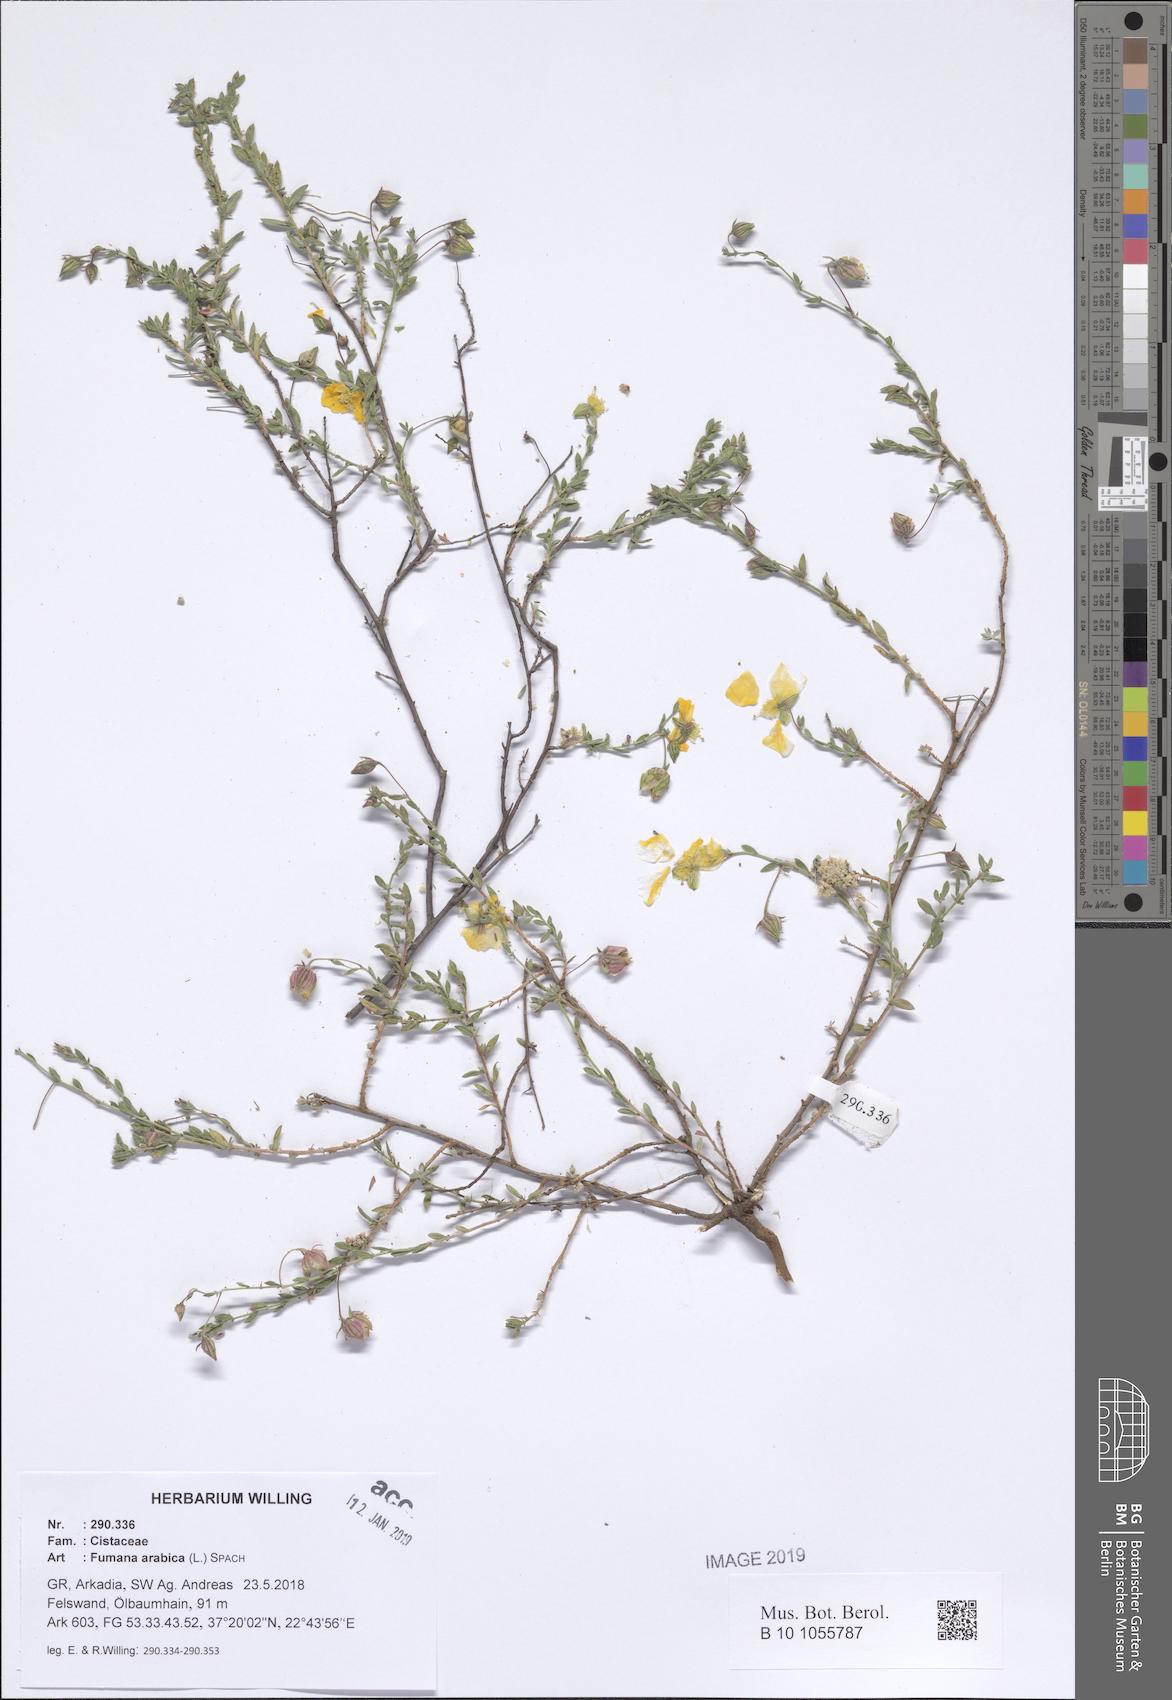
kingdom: Plantae
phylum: Tracheophyta
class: Magnoliopsida
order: Malvales
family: Cistaceae
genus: Fumana
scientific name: Fumana arabica
